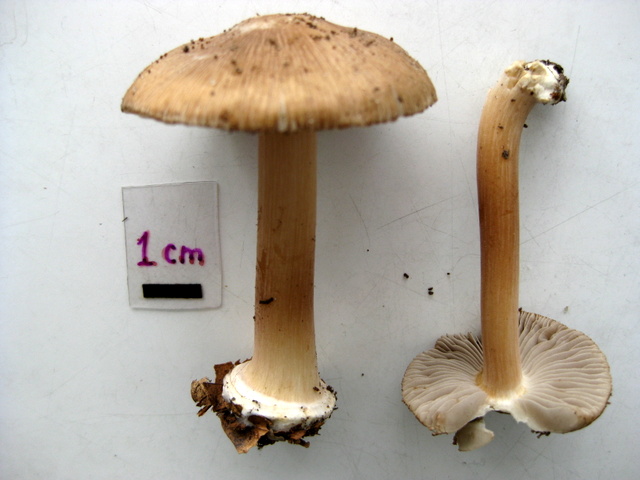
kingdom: Fungi
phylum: Basidiomycota
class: Agaricomycetes
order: Agaricales
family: Inocybaceae
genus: Inocybe
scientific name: Inocybe asterospora
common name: stjernesporet trævlhat
